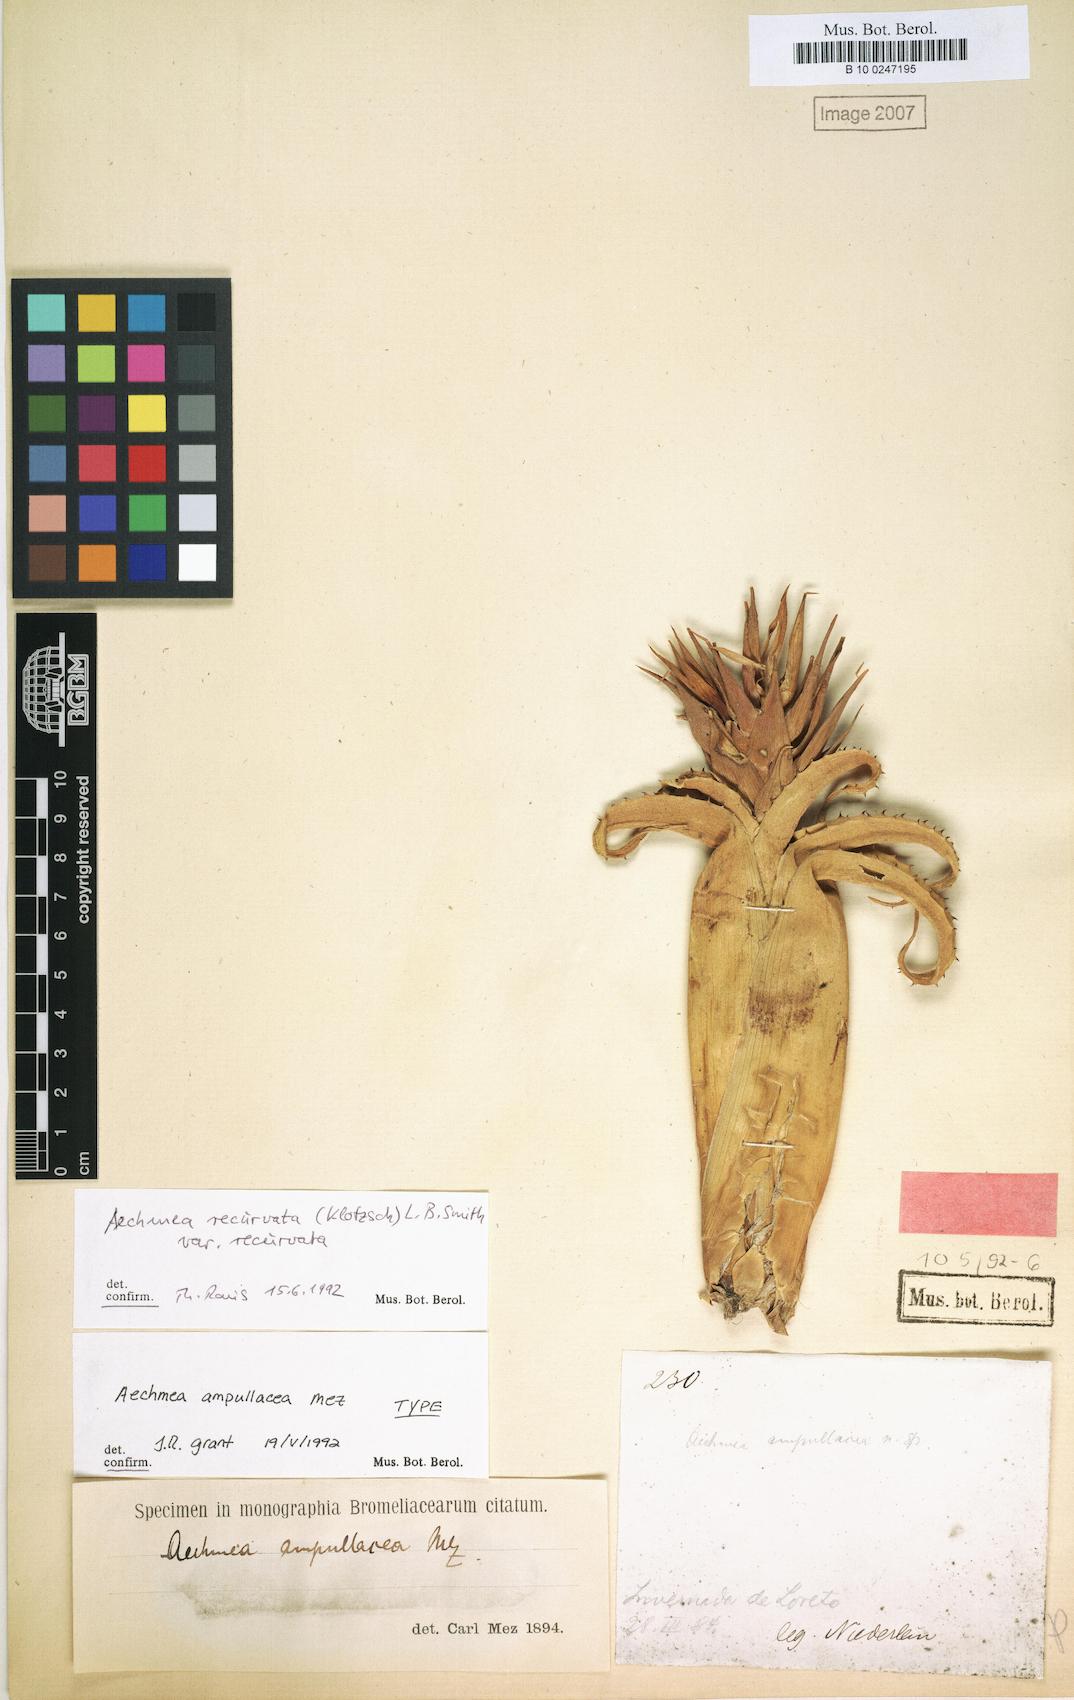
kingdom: Plantae
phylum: Tracheophyta
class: Liliopsida
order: Poales
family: Bromeliaceae
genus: Aechmea
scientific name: Aechmea recurvata
